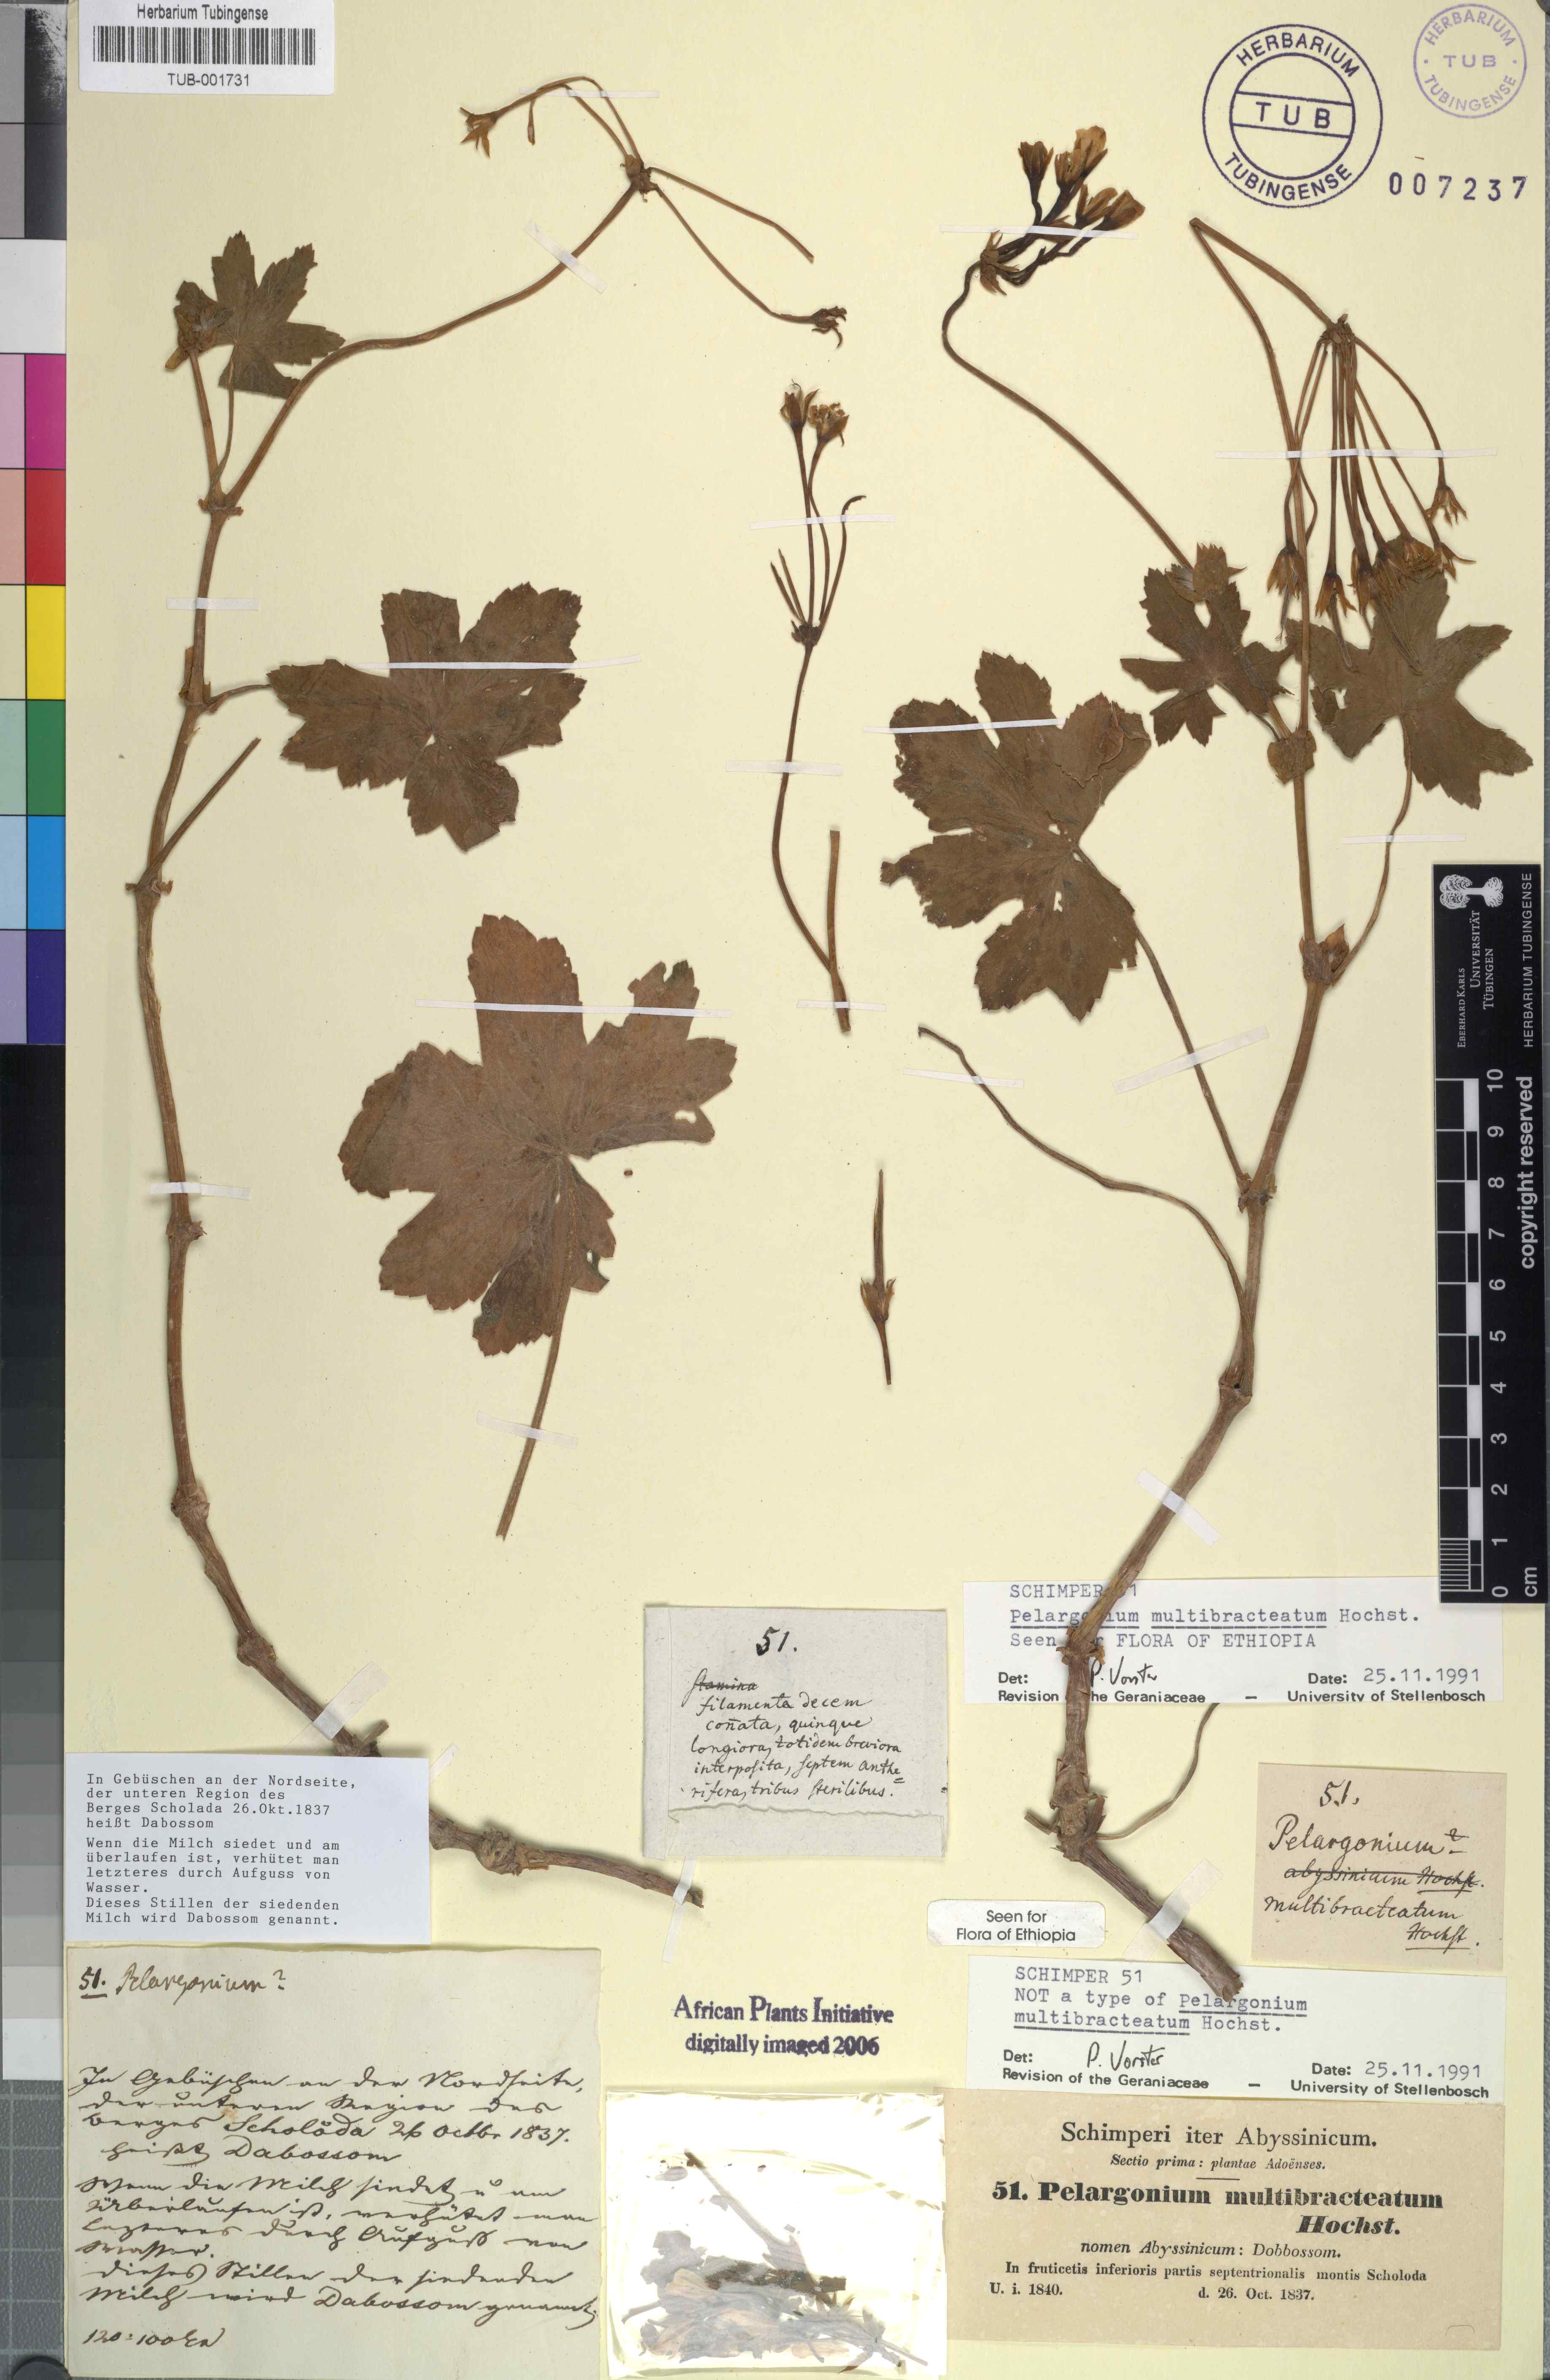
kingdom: Plantae
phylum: Tracheophyta
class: Magnoliopsida
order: Geraniales
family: Geraniaceae
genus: Pelargonium
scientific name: Pelargonium multibracteatum
